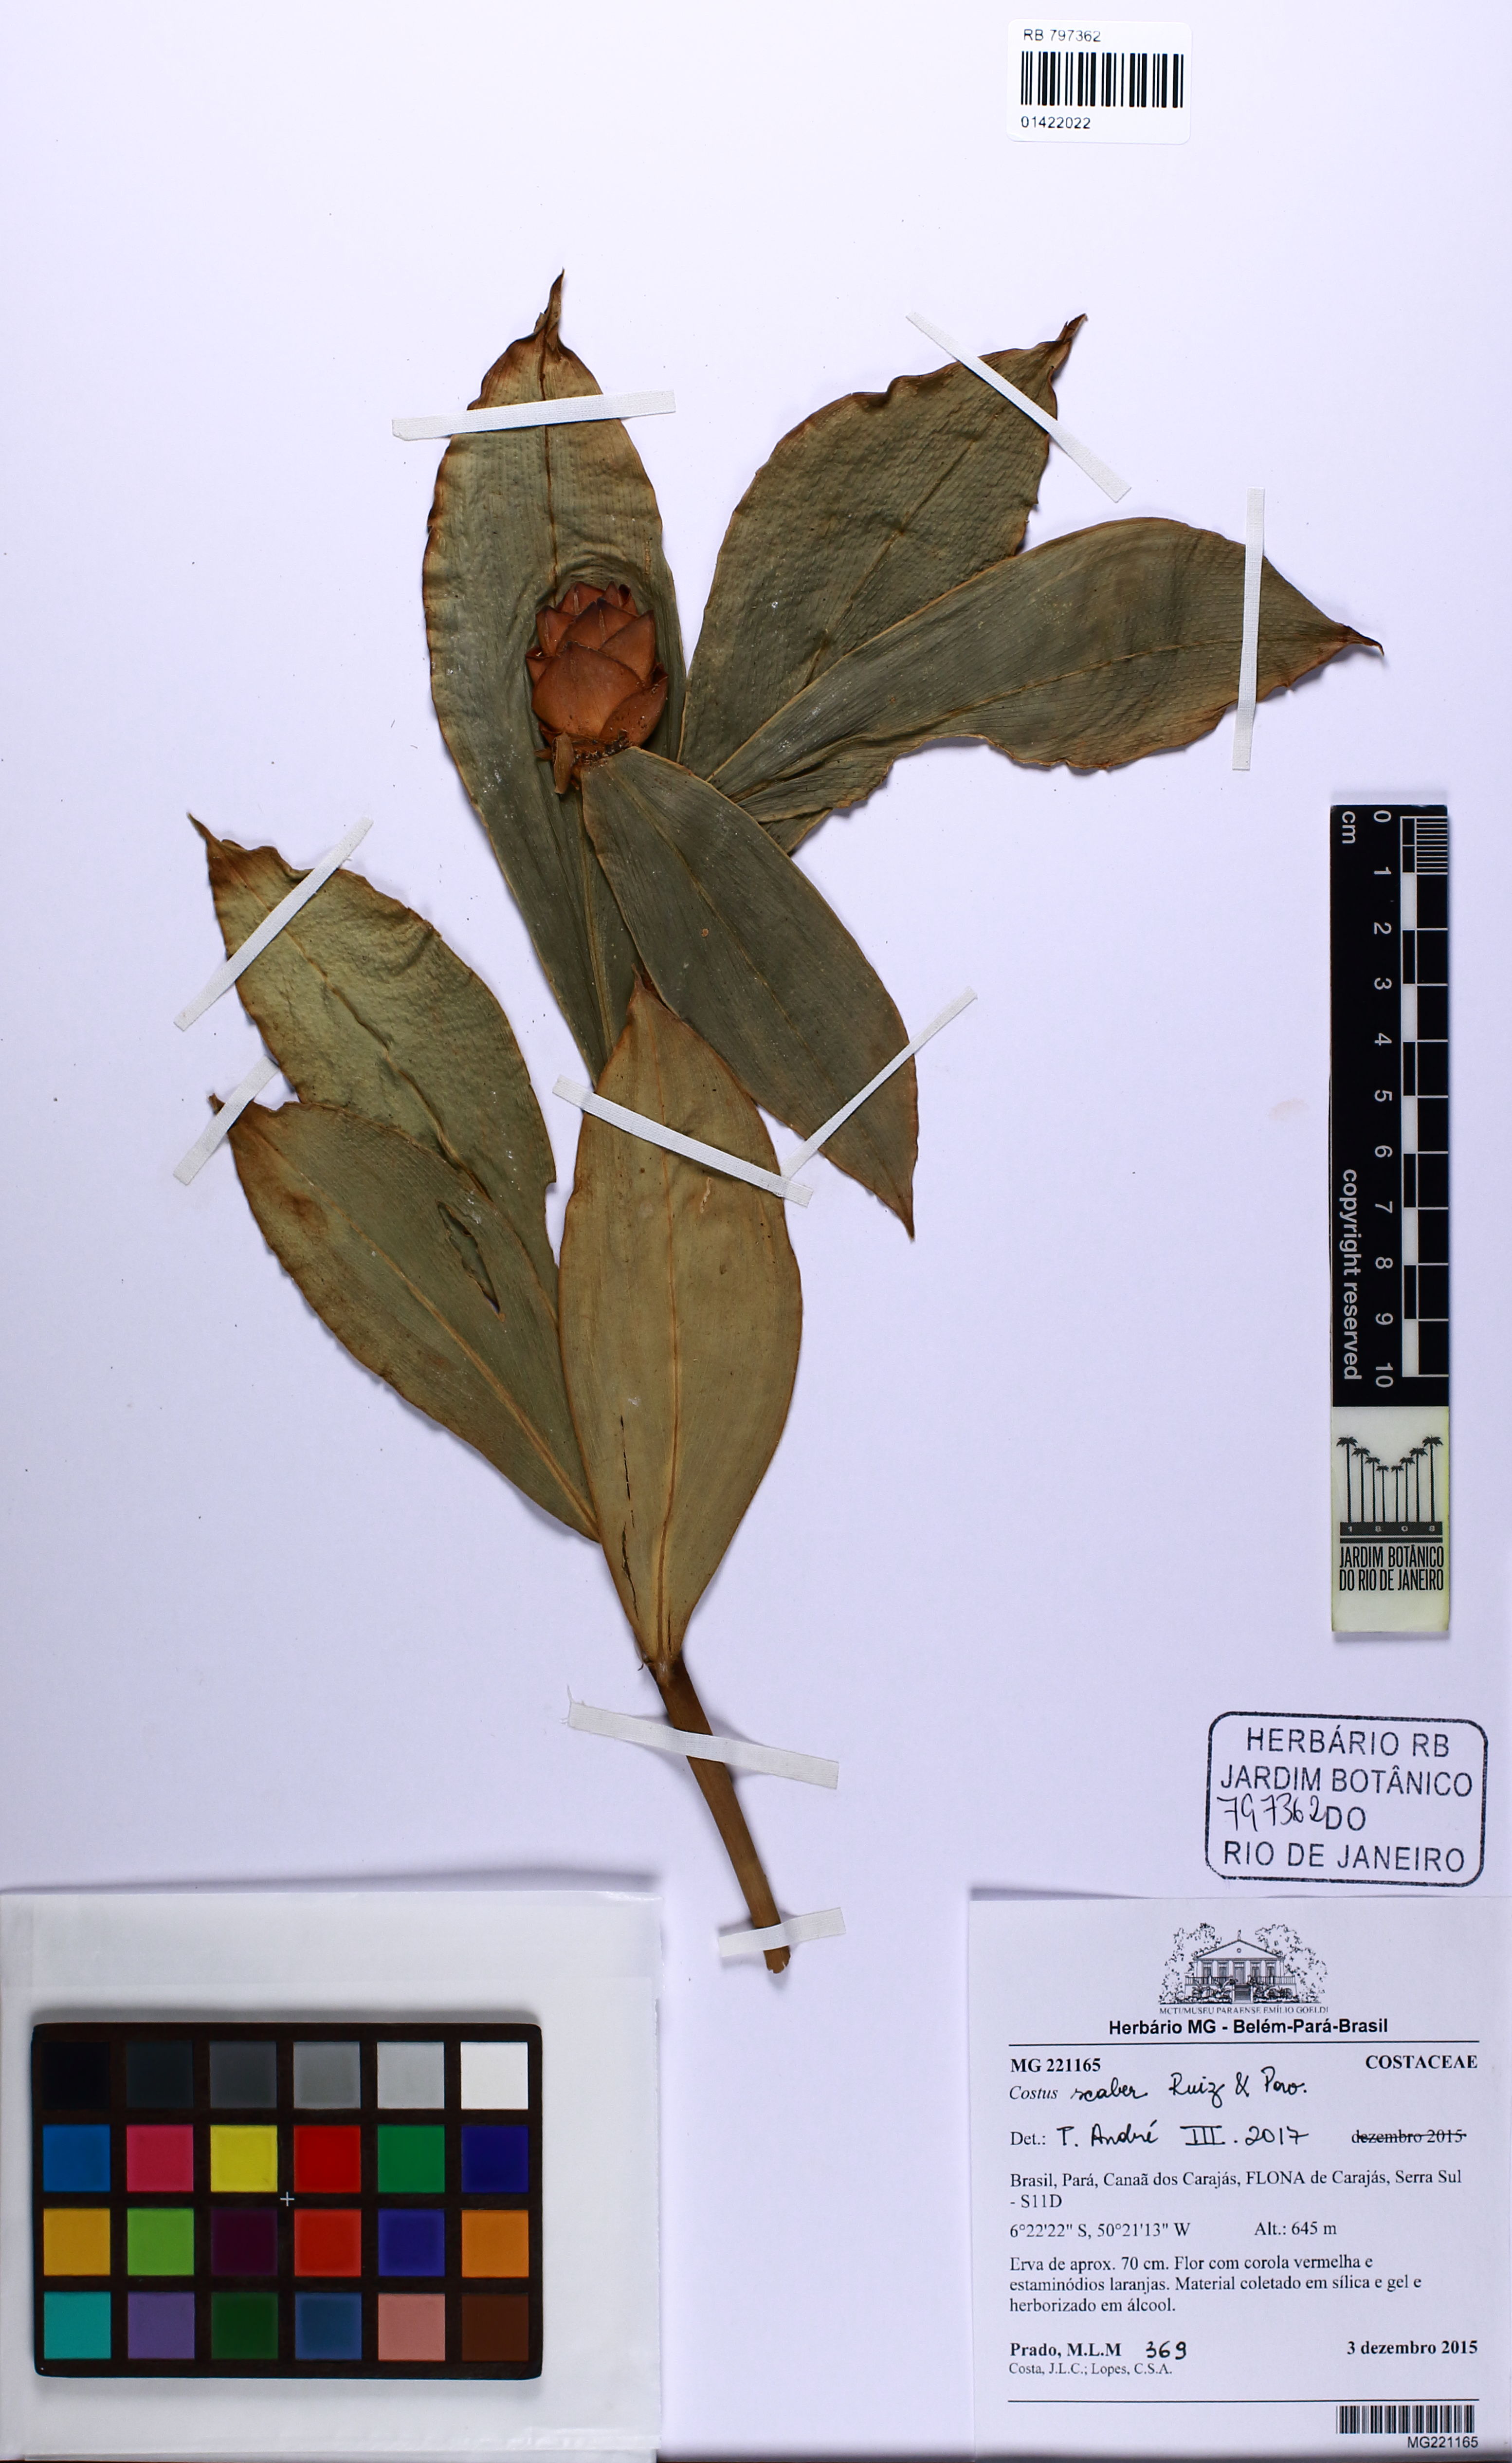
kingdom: Plantae
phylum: Tracheophyta
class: Liliopsida
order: Zingiberales
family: Costaceae
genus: Costus
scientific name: Costus scaber
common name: Spiral head ginger
